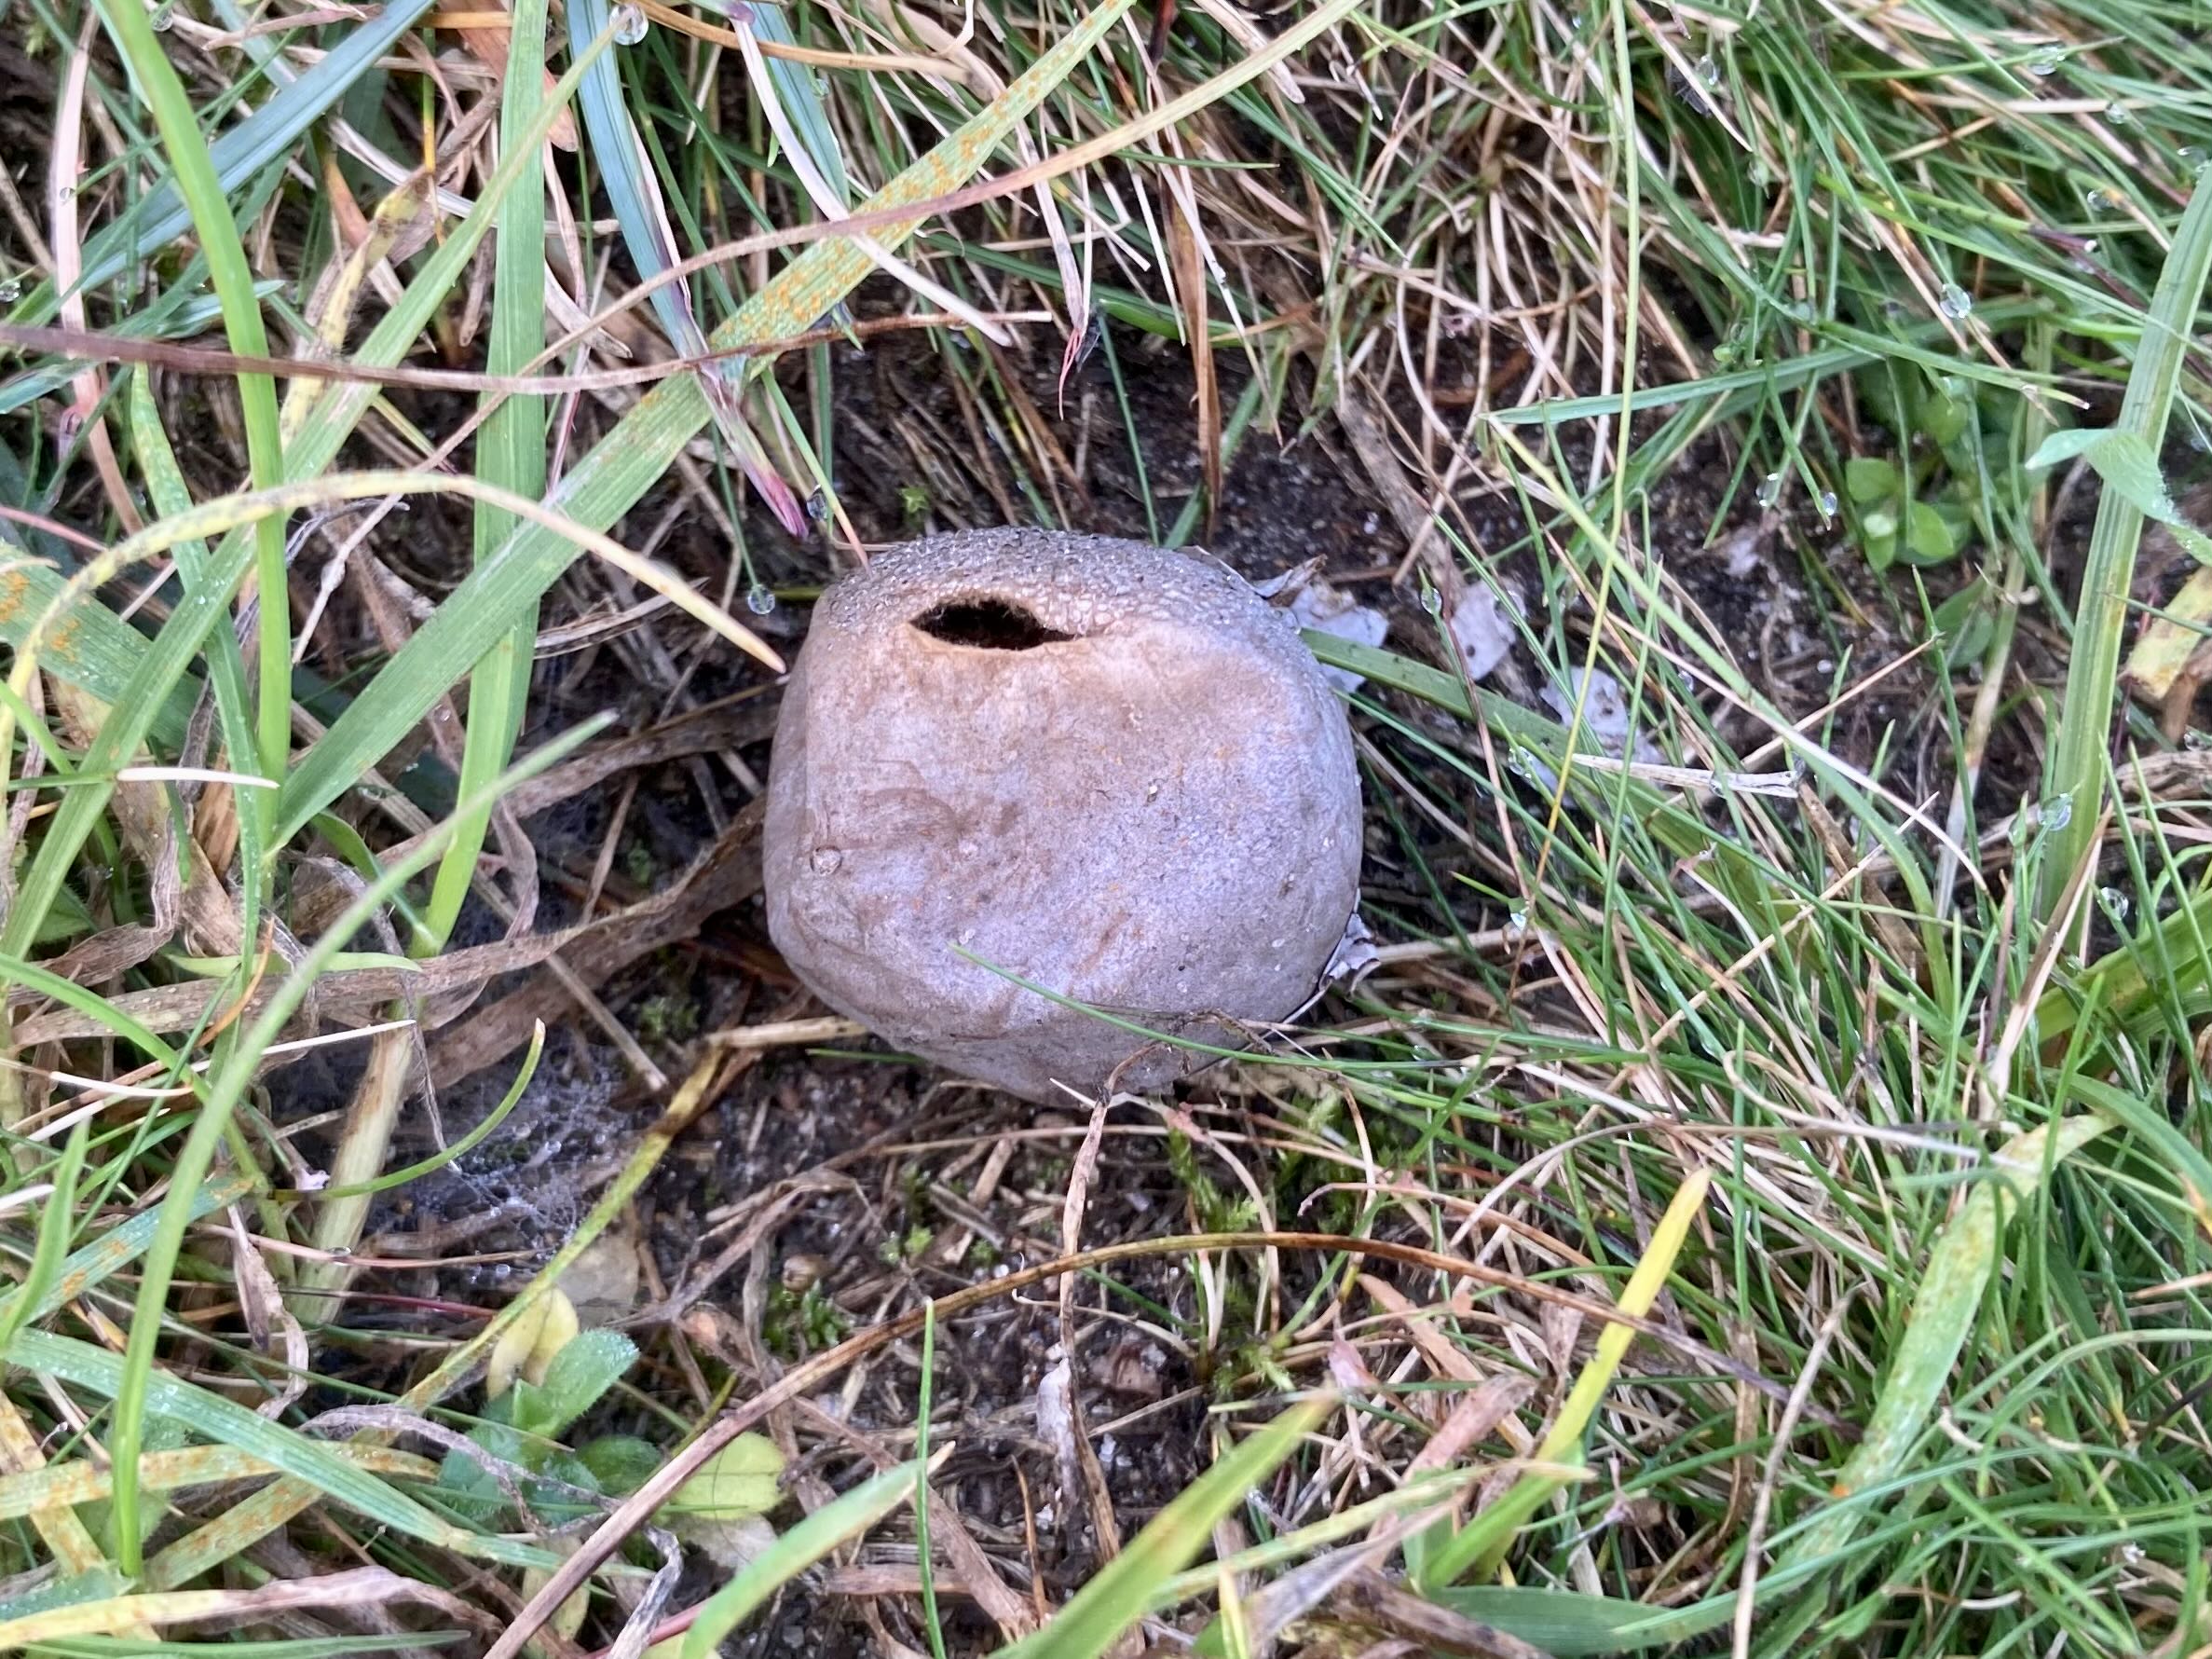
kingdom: Fungi
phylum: Basidiomycota
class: Agaricomycetes
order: Agaricales
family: Lycoperdaceae
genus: Bovista
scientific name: Bovista plumbea
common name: blygrå bovist
